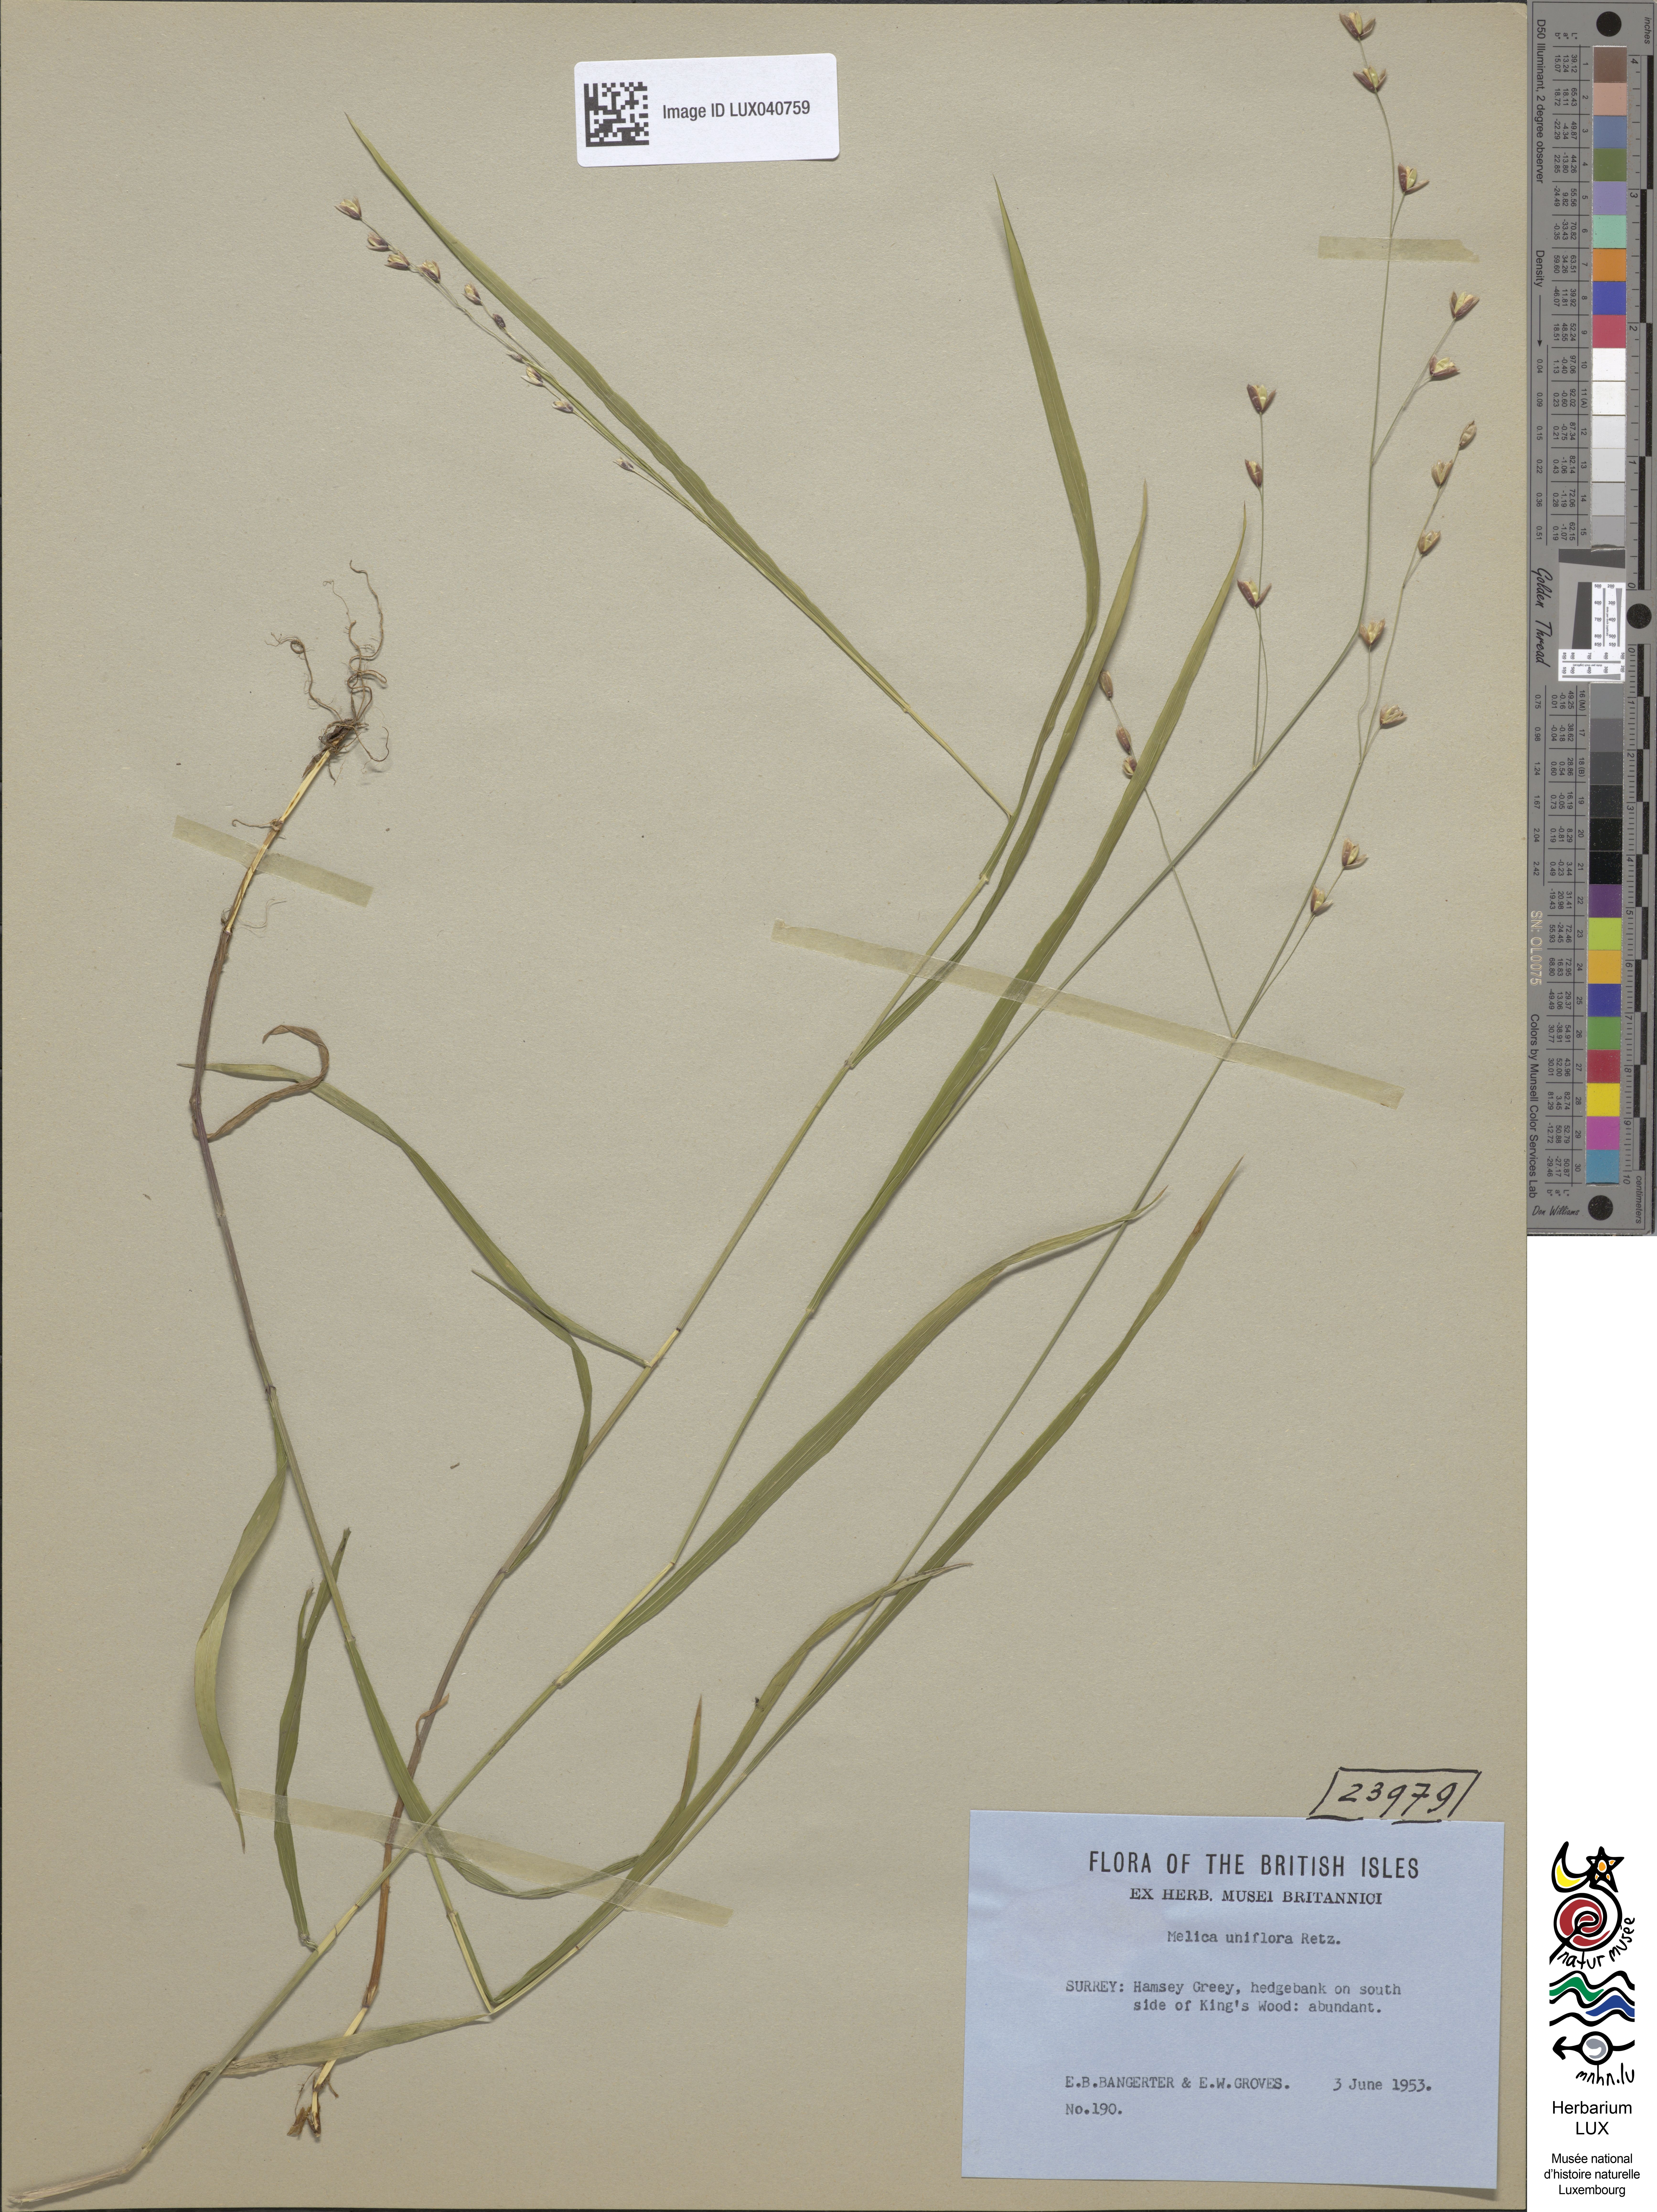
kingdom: Plantae
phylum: Tracheophyta
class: Liliopsida
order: Poales
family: Poaceae
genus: Melica
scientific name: Melica uniflora
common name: Wood melick
